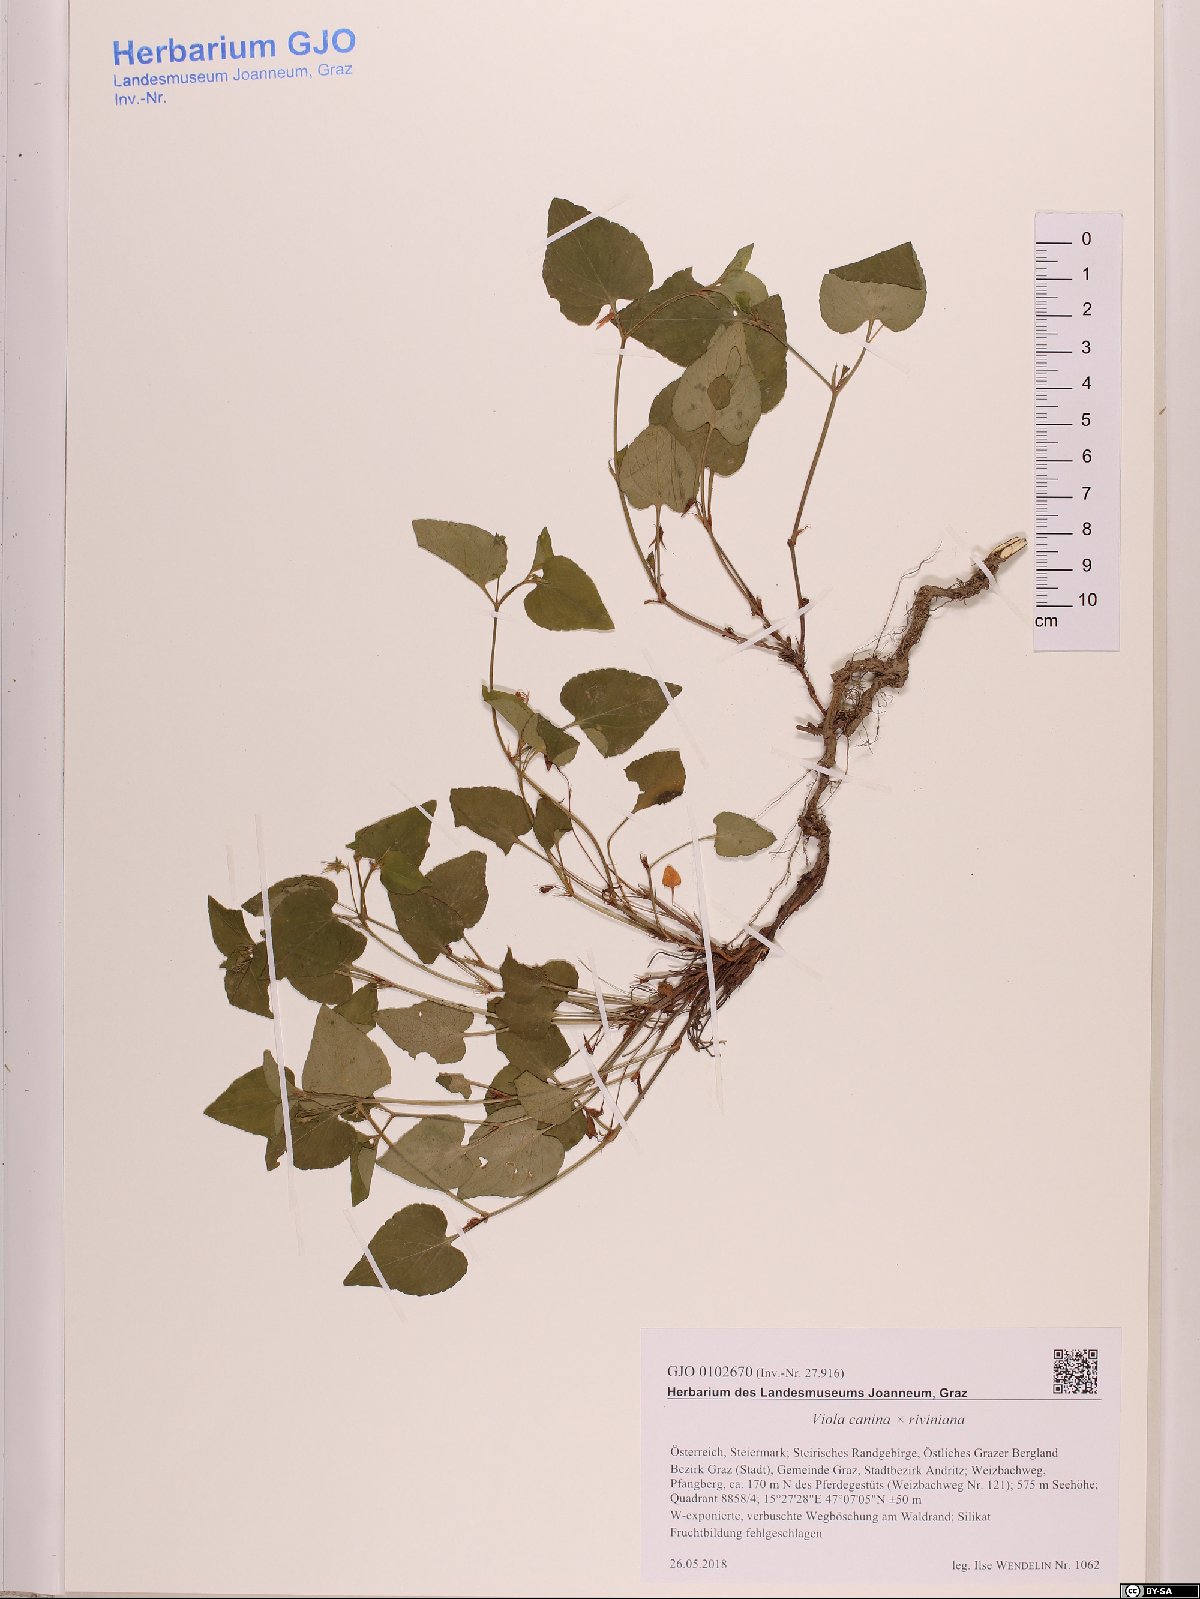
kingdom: Plantae
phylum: Tracheophyta
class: Magnoliopsida
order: Malpighiales
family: Violaceae
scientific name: Violaceae
